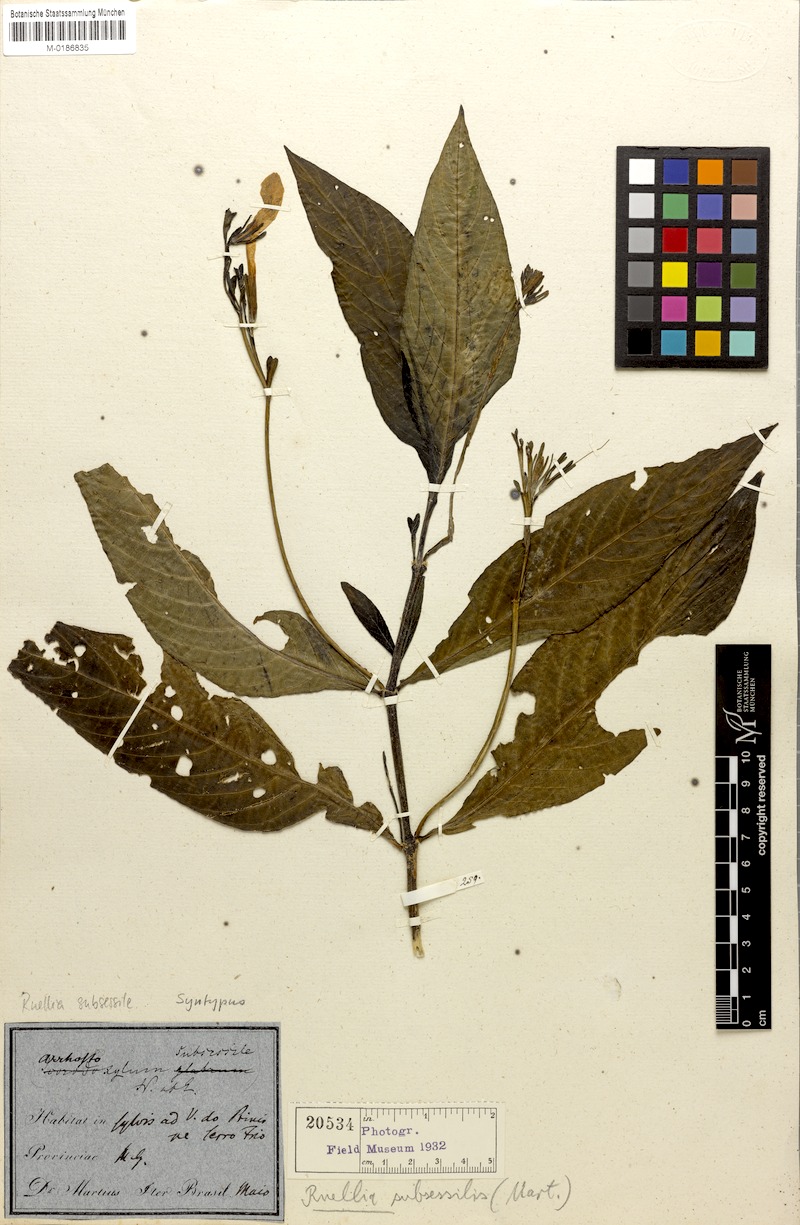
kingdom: Plantae
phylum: Tracheophyta
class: Magnoliopsida
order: Lamiales
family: Acanthaceae
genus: Ruellia
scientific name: Ruellia subsessilis
